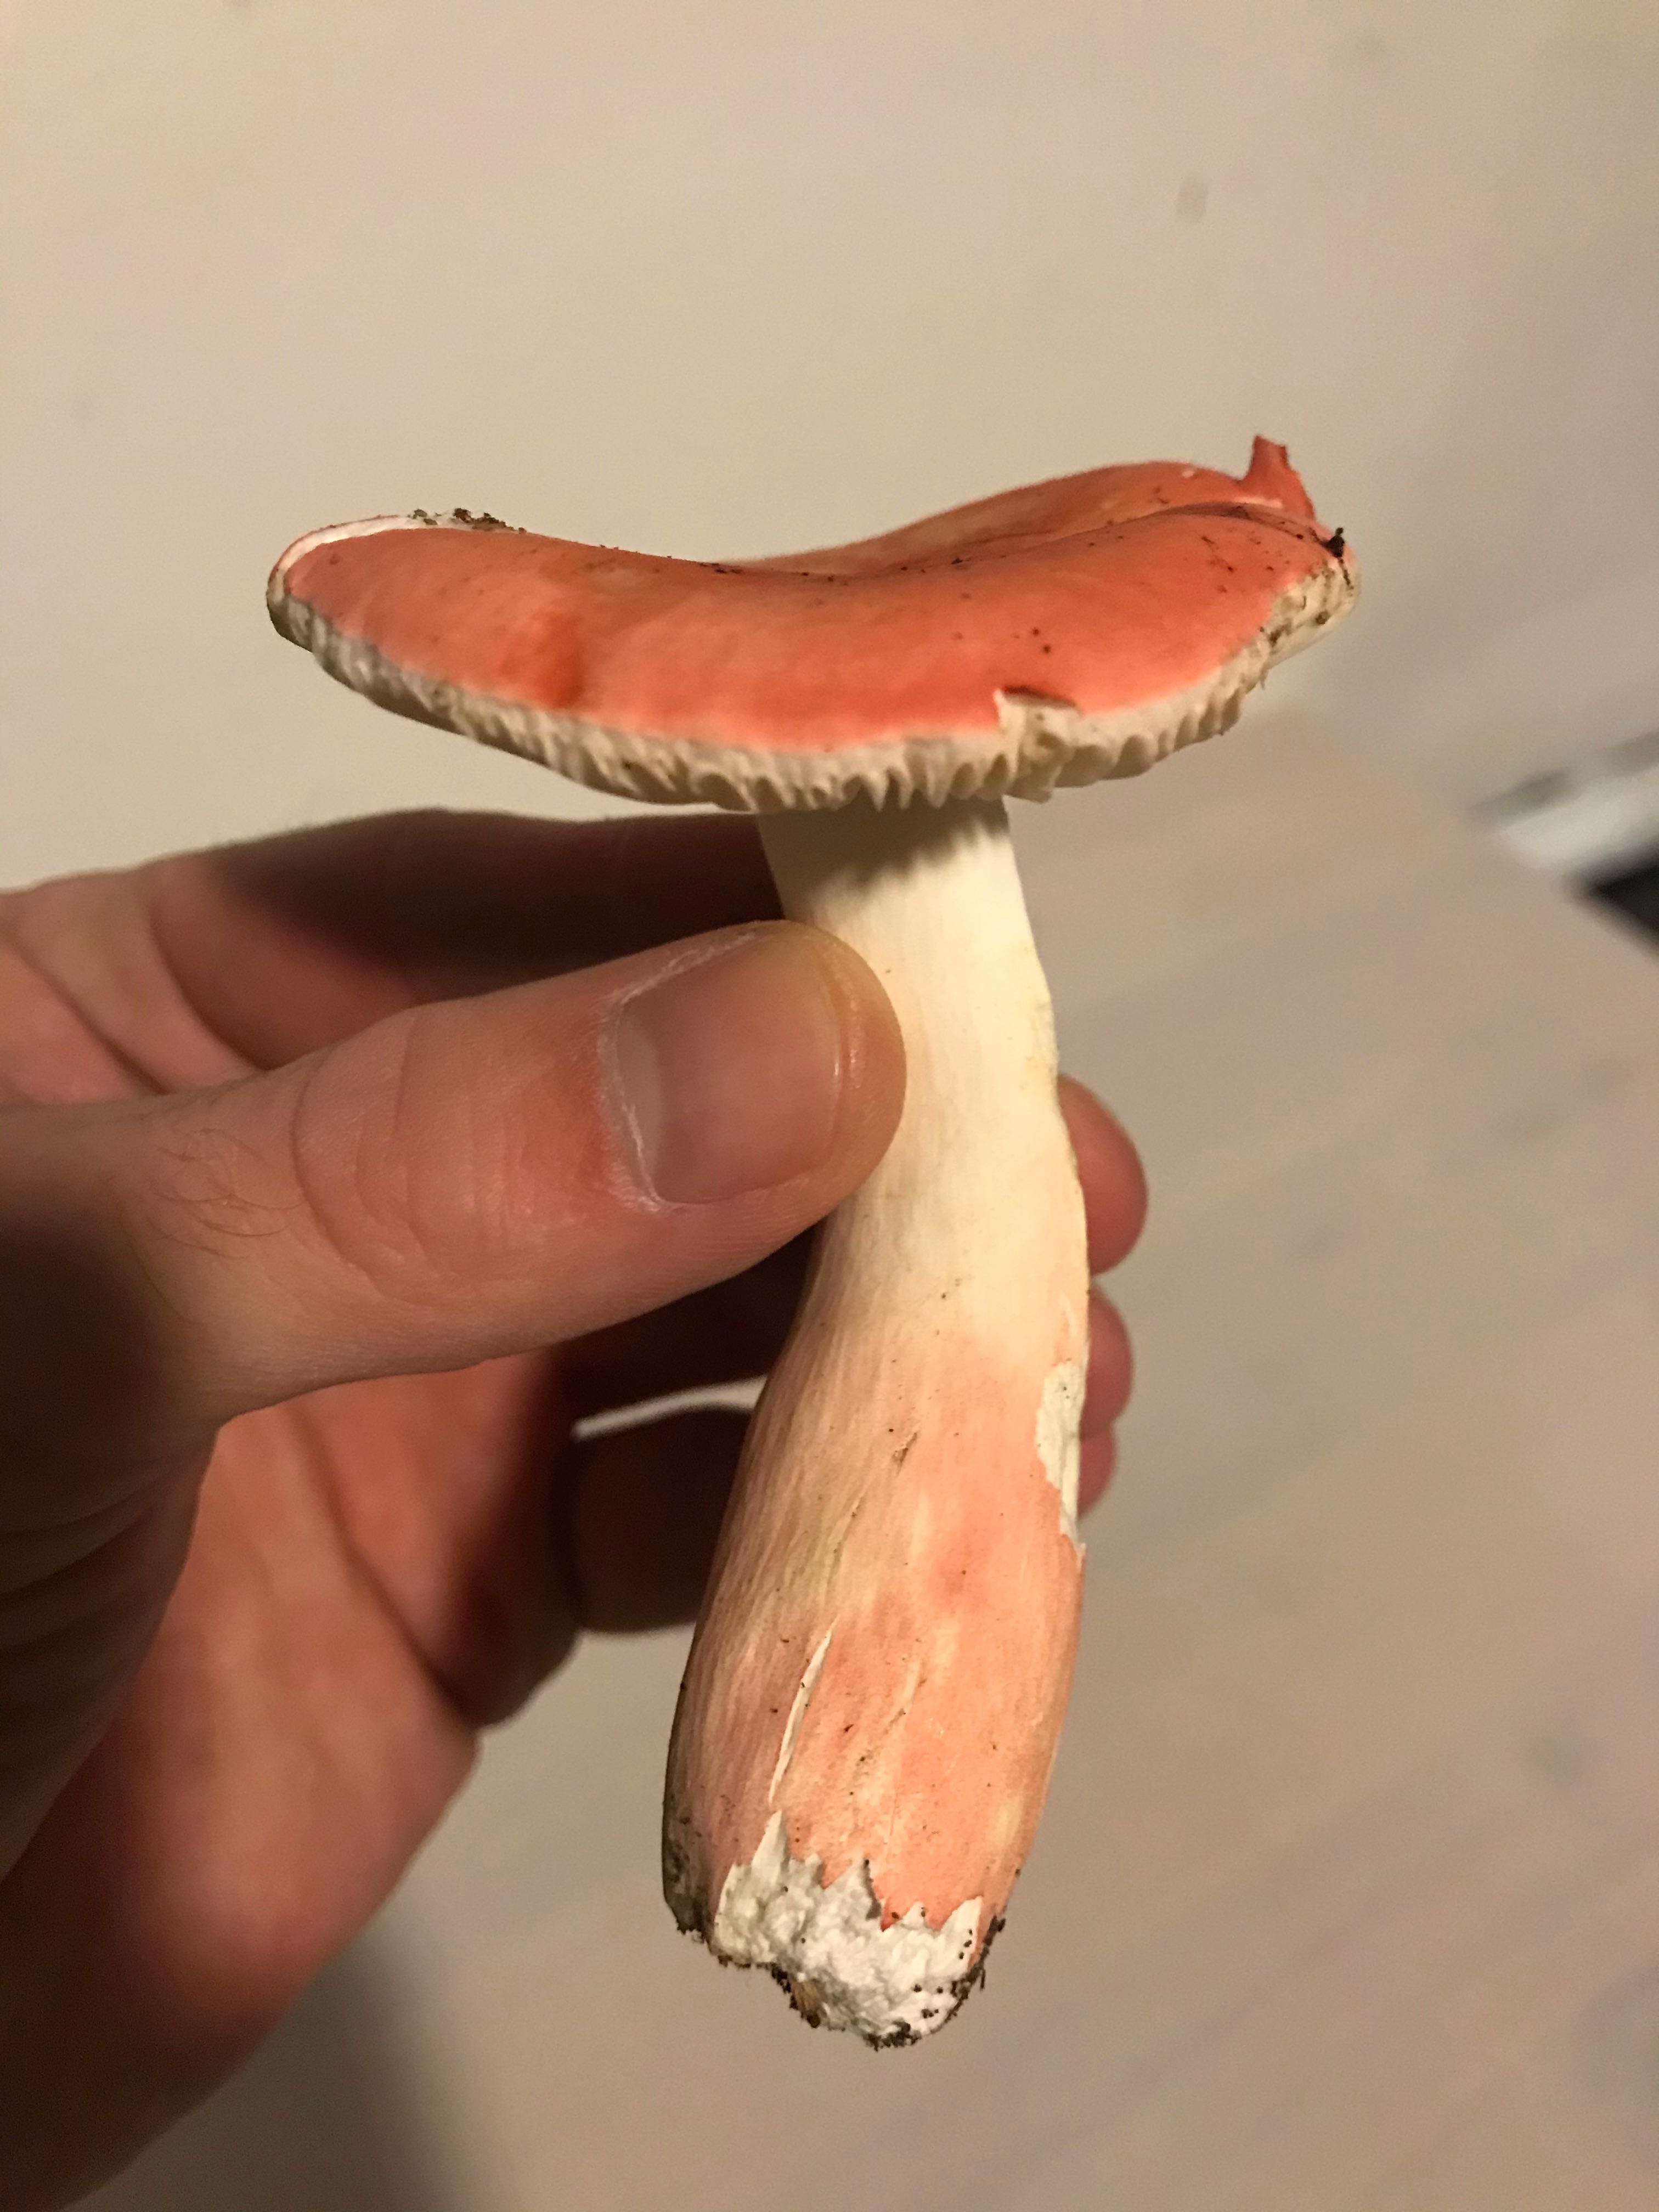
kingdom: Fungi
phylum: Basidiomycota
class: Agaricomycetes
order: Russulales
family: Russulaceae
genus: Russula
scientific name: Russula rosea
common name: fastkødet skørhat
